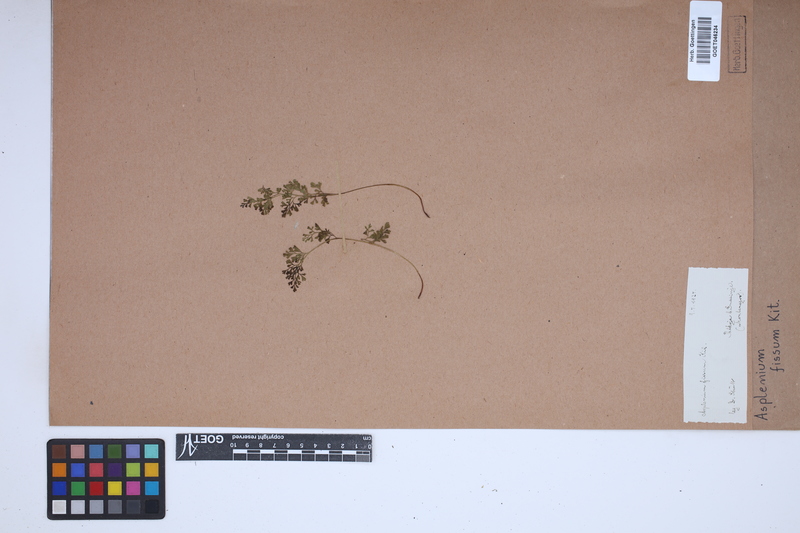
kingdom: Plantae
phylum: Tracheophyta
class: Polypodiopsida
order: Polypodiales
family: Aspleniaceae
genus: Asplenium
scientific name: Asplenium fissum
